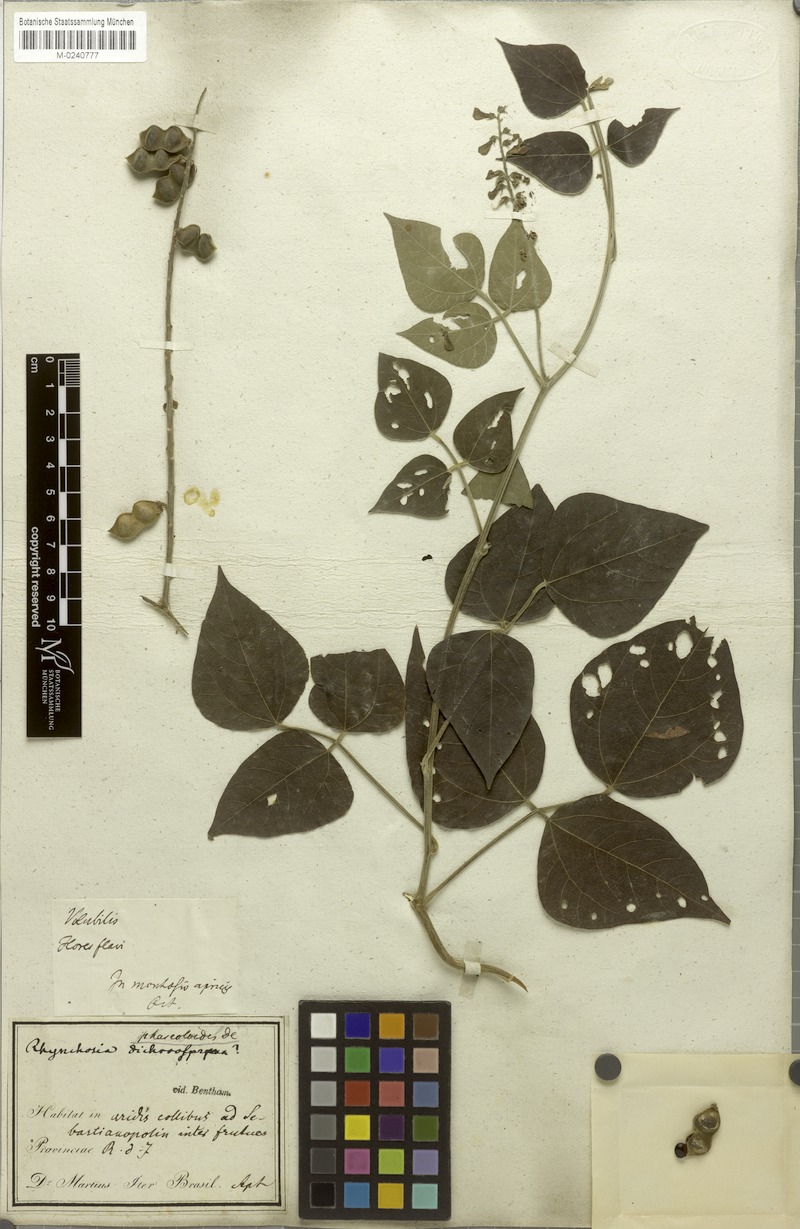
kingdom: Plantae
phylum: Tracheophyta
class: Magnoliopsida
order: Fabales
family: Fabaceae
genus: Rhynchosia
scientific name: Rhynchosia phaseoloides
